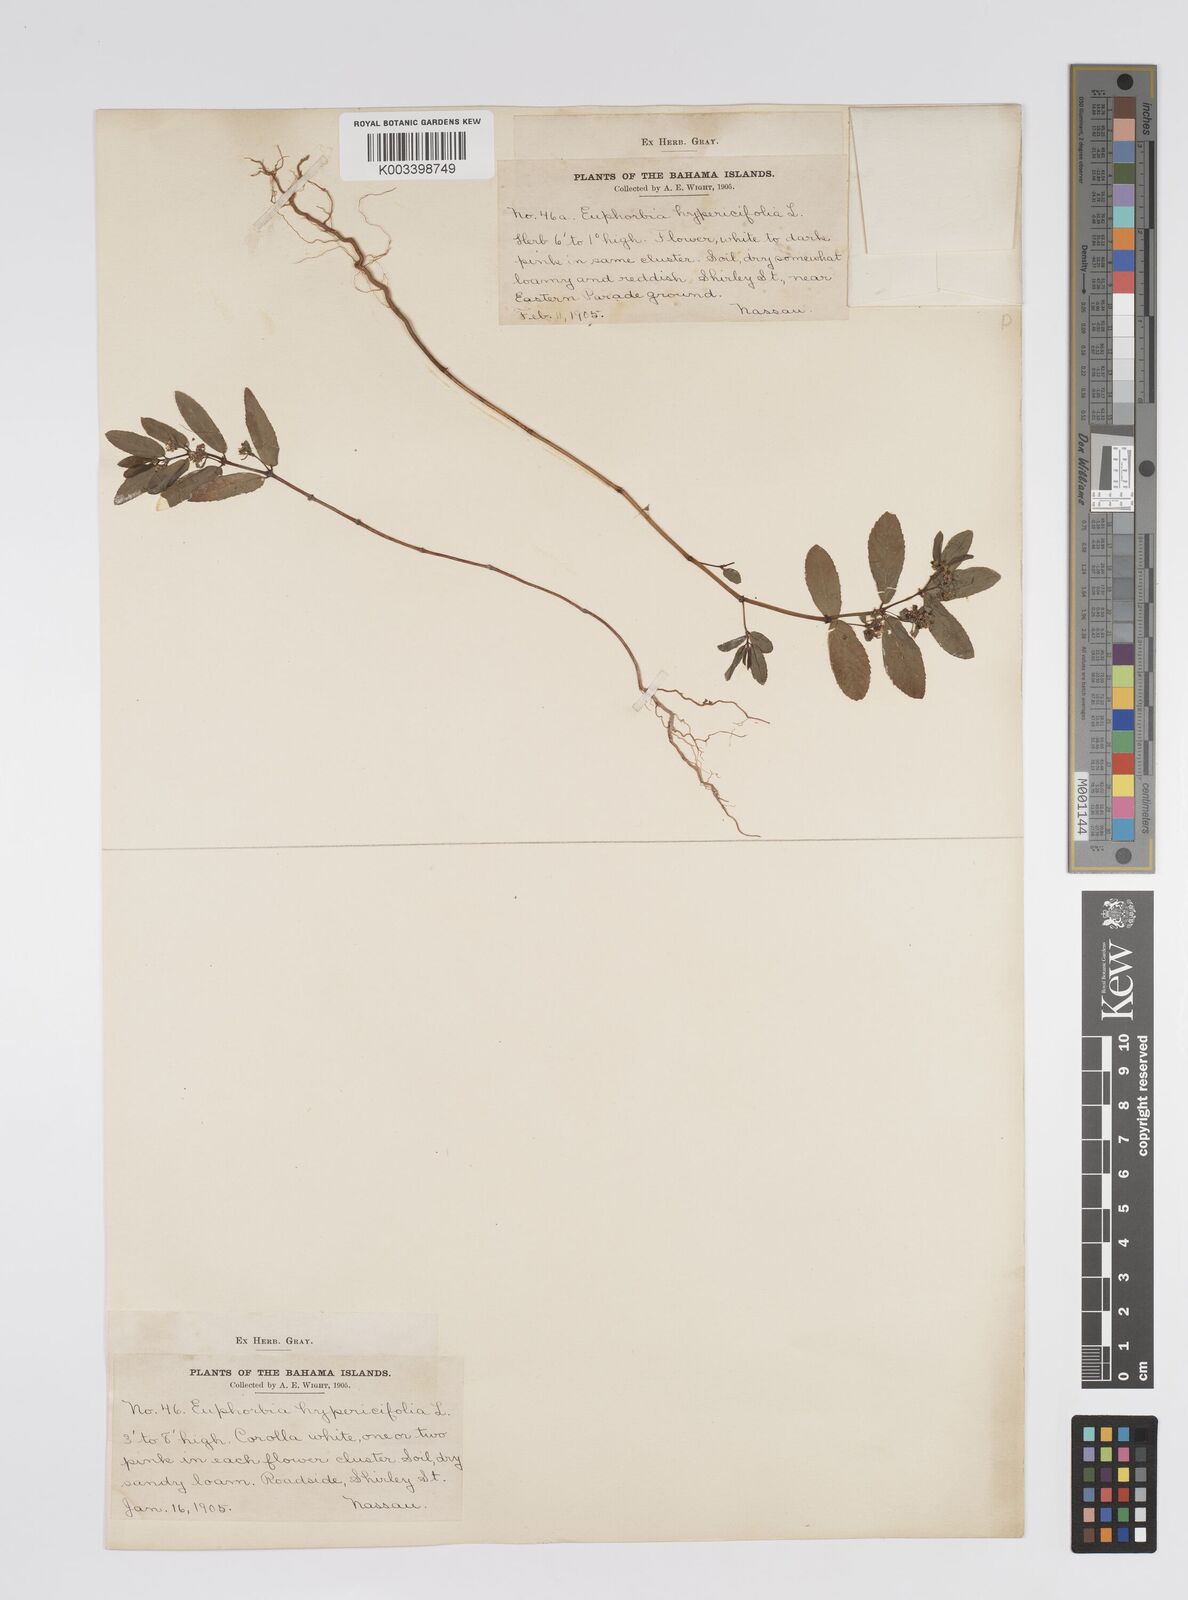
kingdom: Plantae
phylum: Tracheophyta
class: Magnoliopsida
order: Malpighiales
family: Euphorbiaceae
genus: Euphorbia
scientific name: Euphorbia
